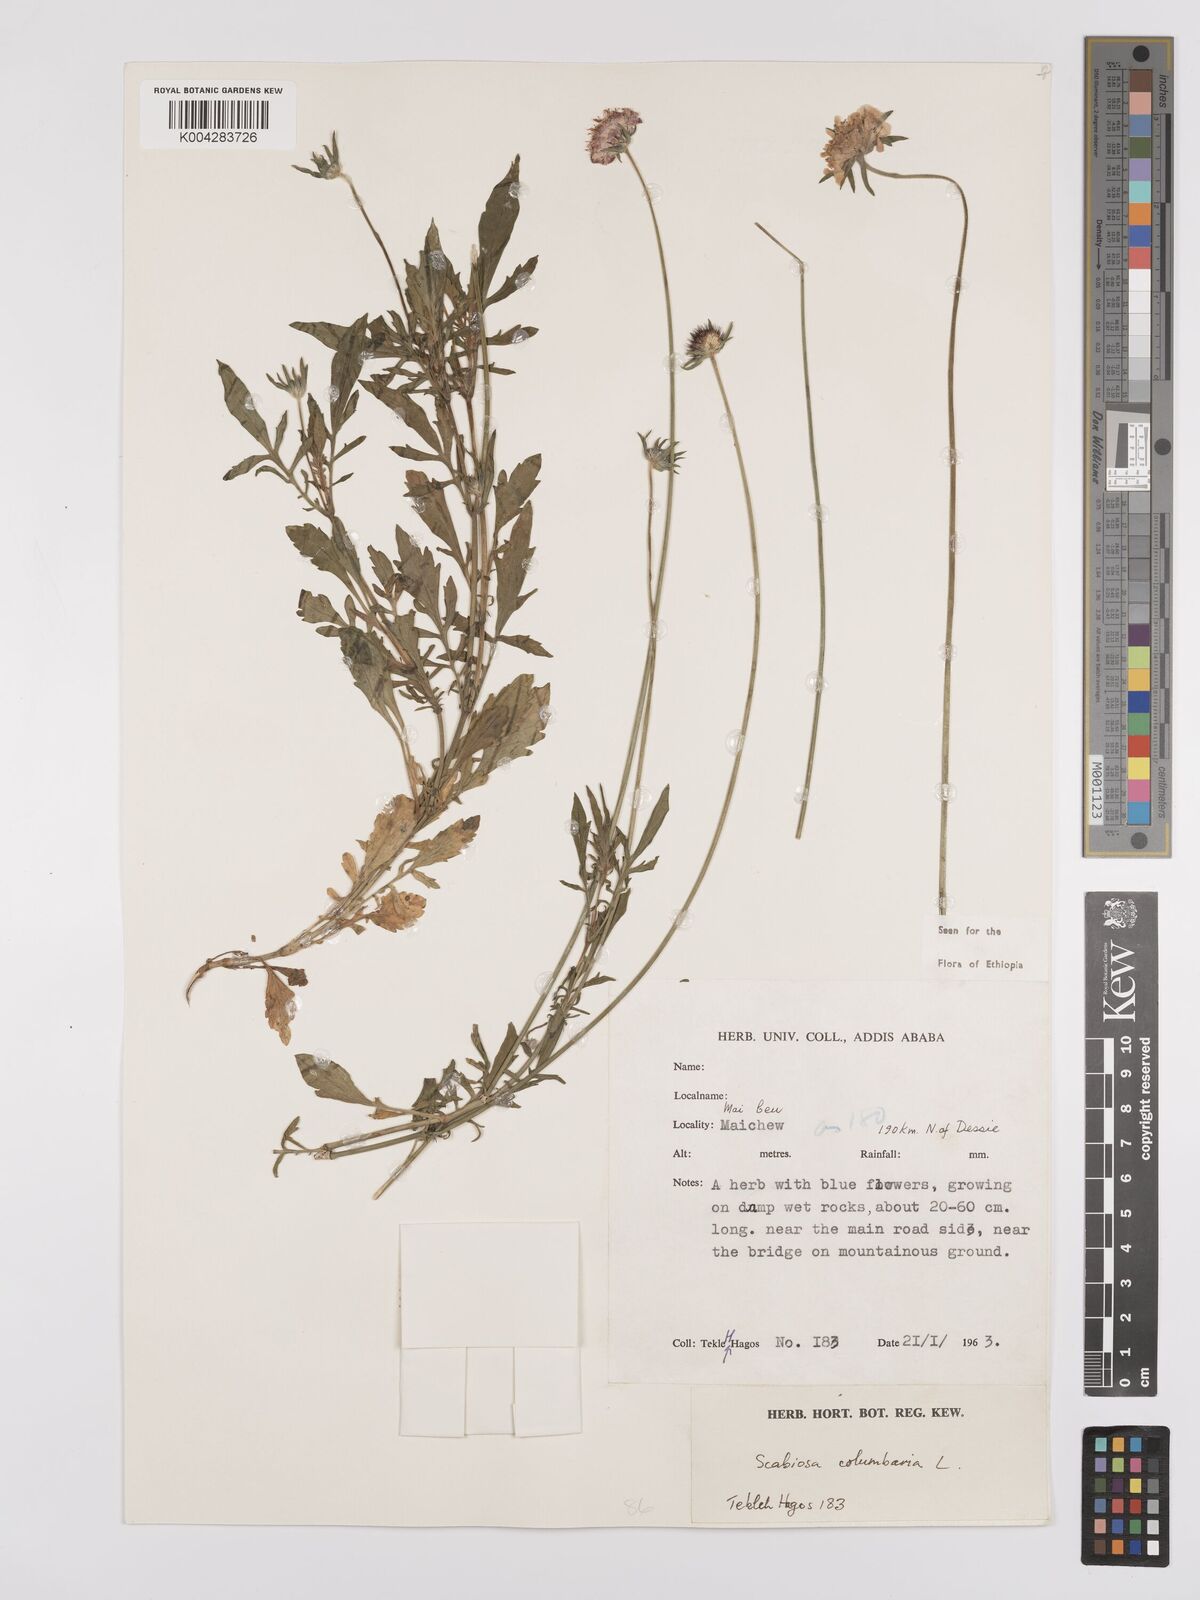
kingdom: Plantae
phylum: Tracheophyta
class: Magnoliopsida
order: Dipsacales
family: Caprifoliaceae
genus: Scabiosa
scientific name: Scabiosa columbaria
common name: Small scabious
